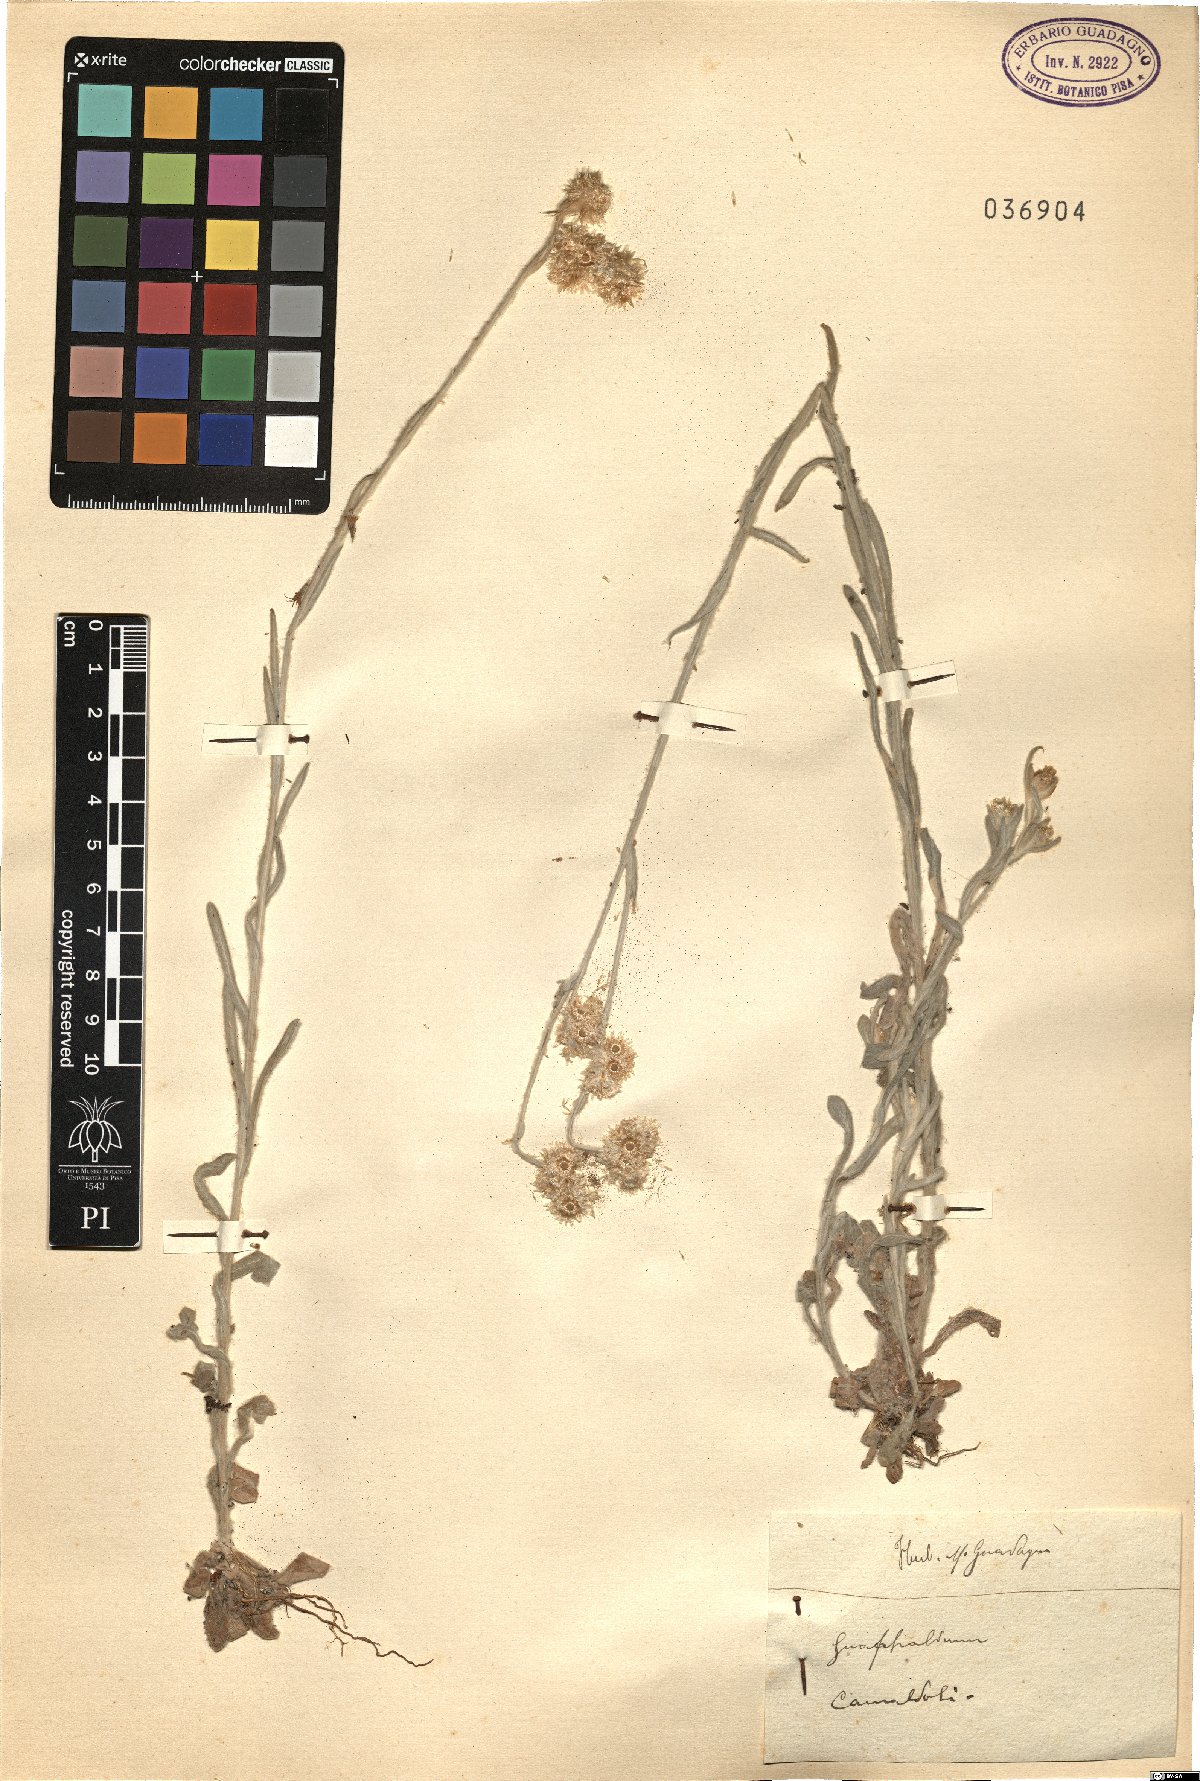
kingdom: Plantae
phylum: Tracheophyta
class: Magnoliopsida
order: Asterales
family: Asteraceae
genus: Gnaphalium
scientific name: Gnaphalium
